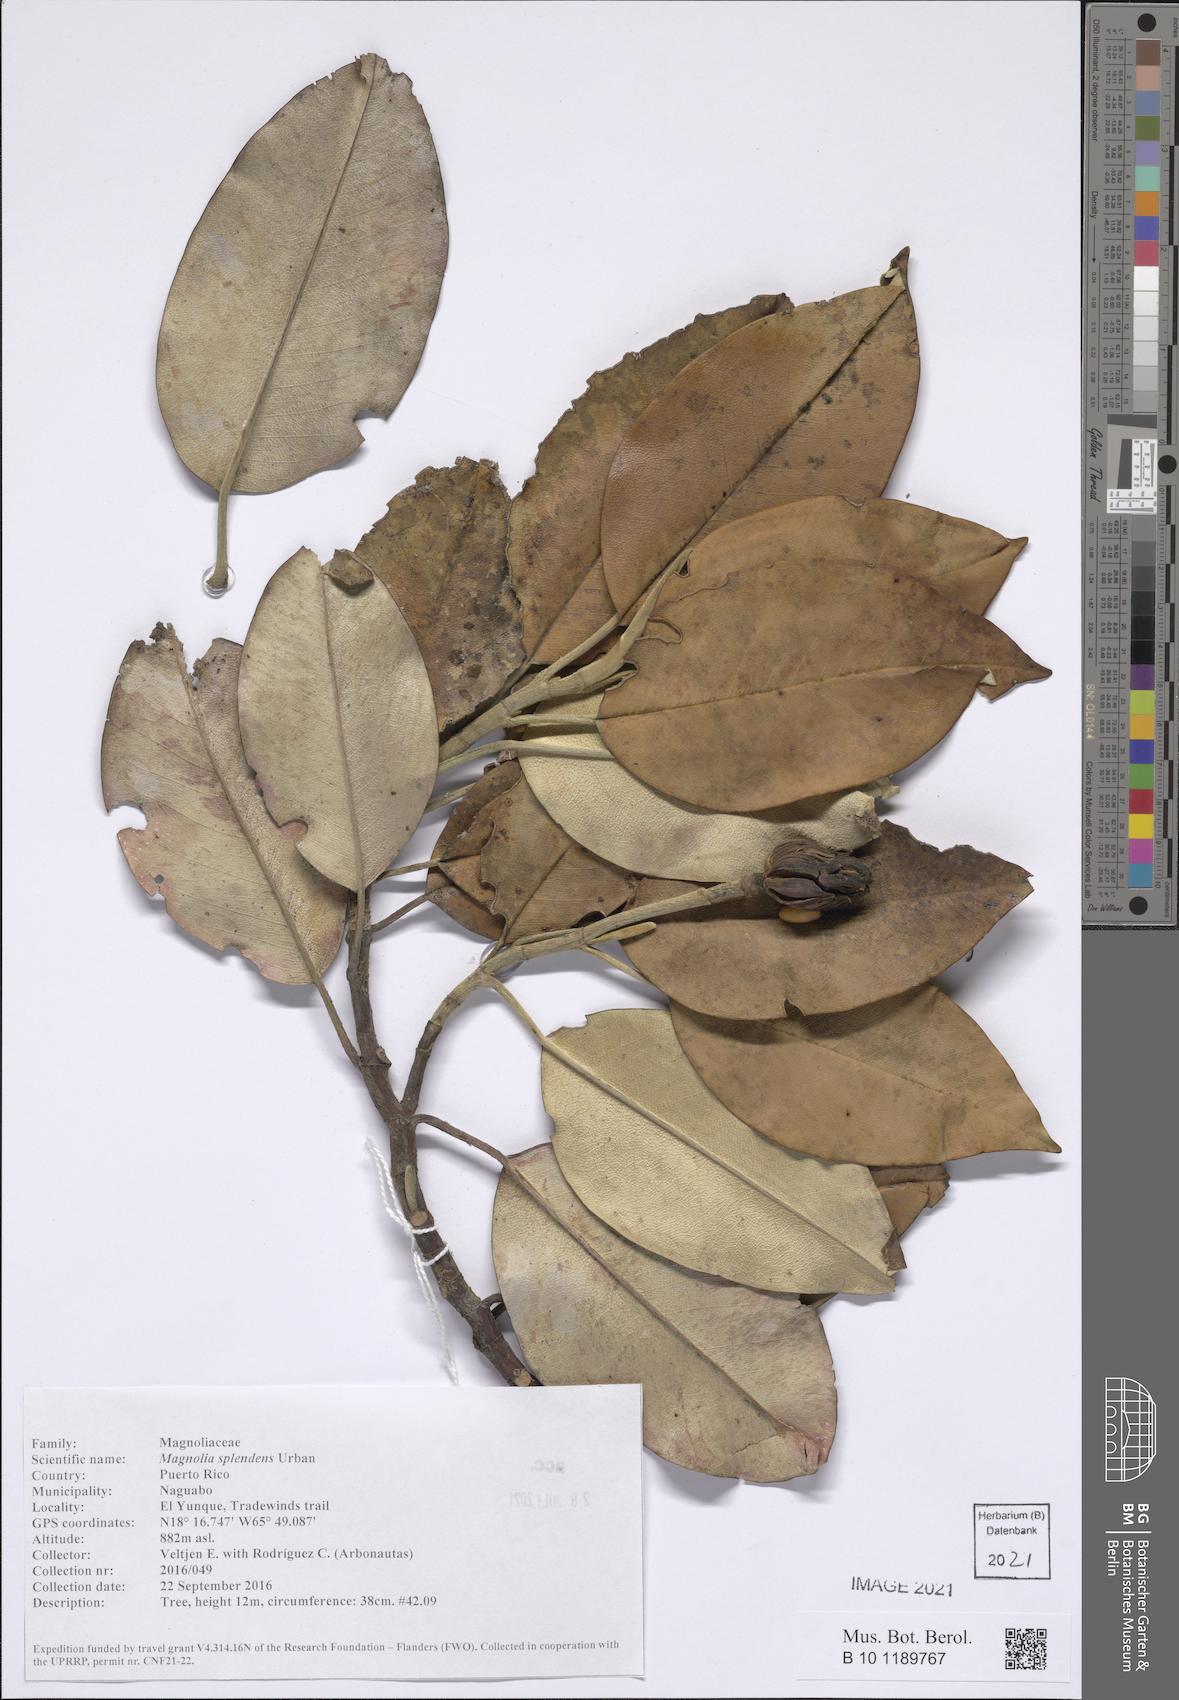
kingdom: Plantae
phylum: Tracheophyta
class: Magnoliopsida
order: Magnoliales
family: Magnoliaceae
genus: Magnolia
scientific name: Magnolia splendens
